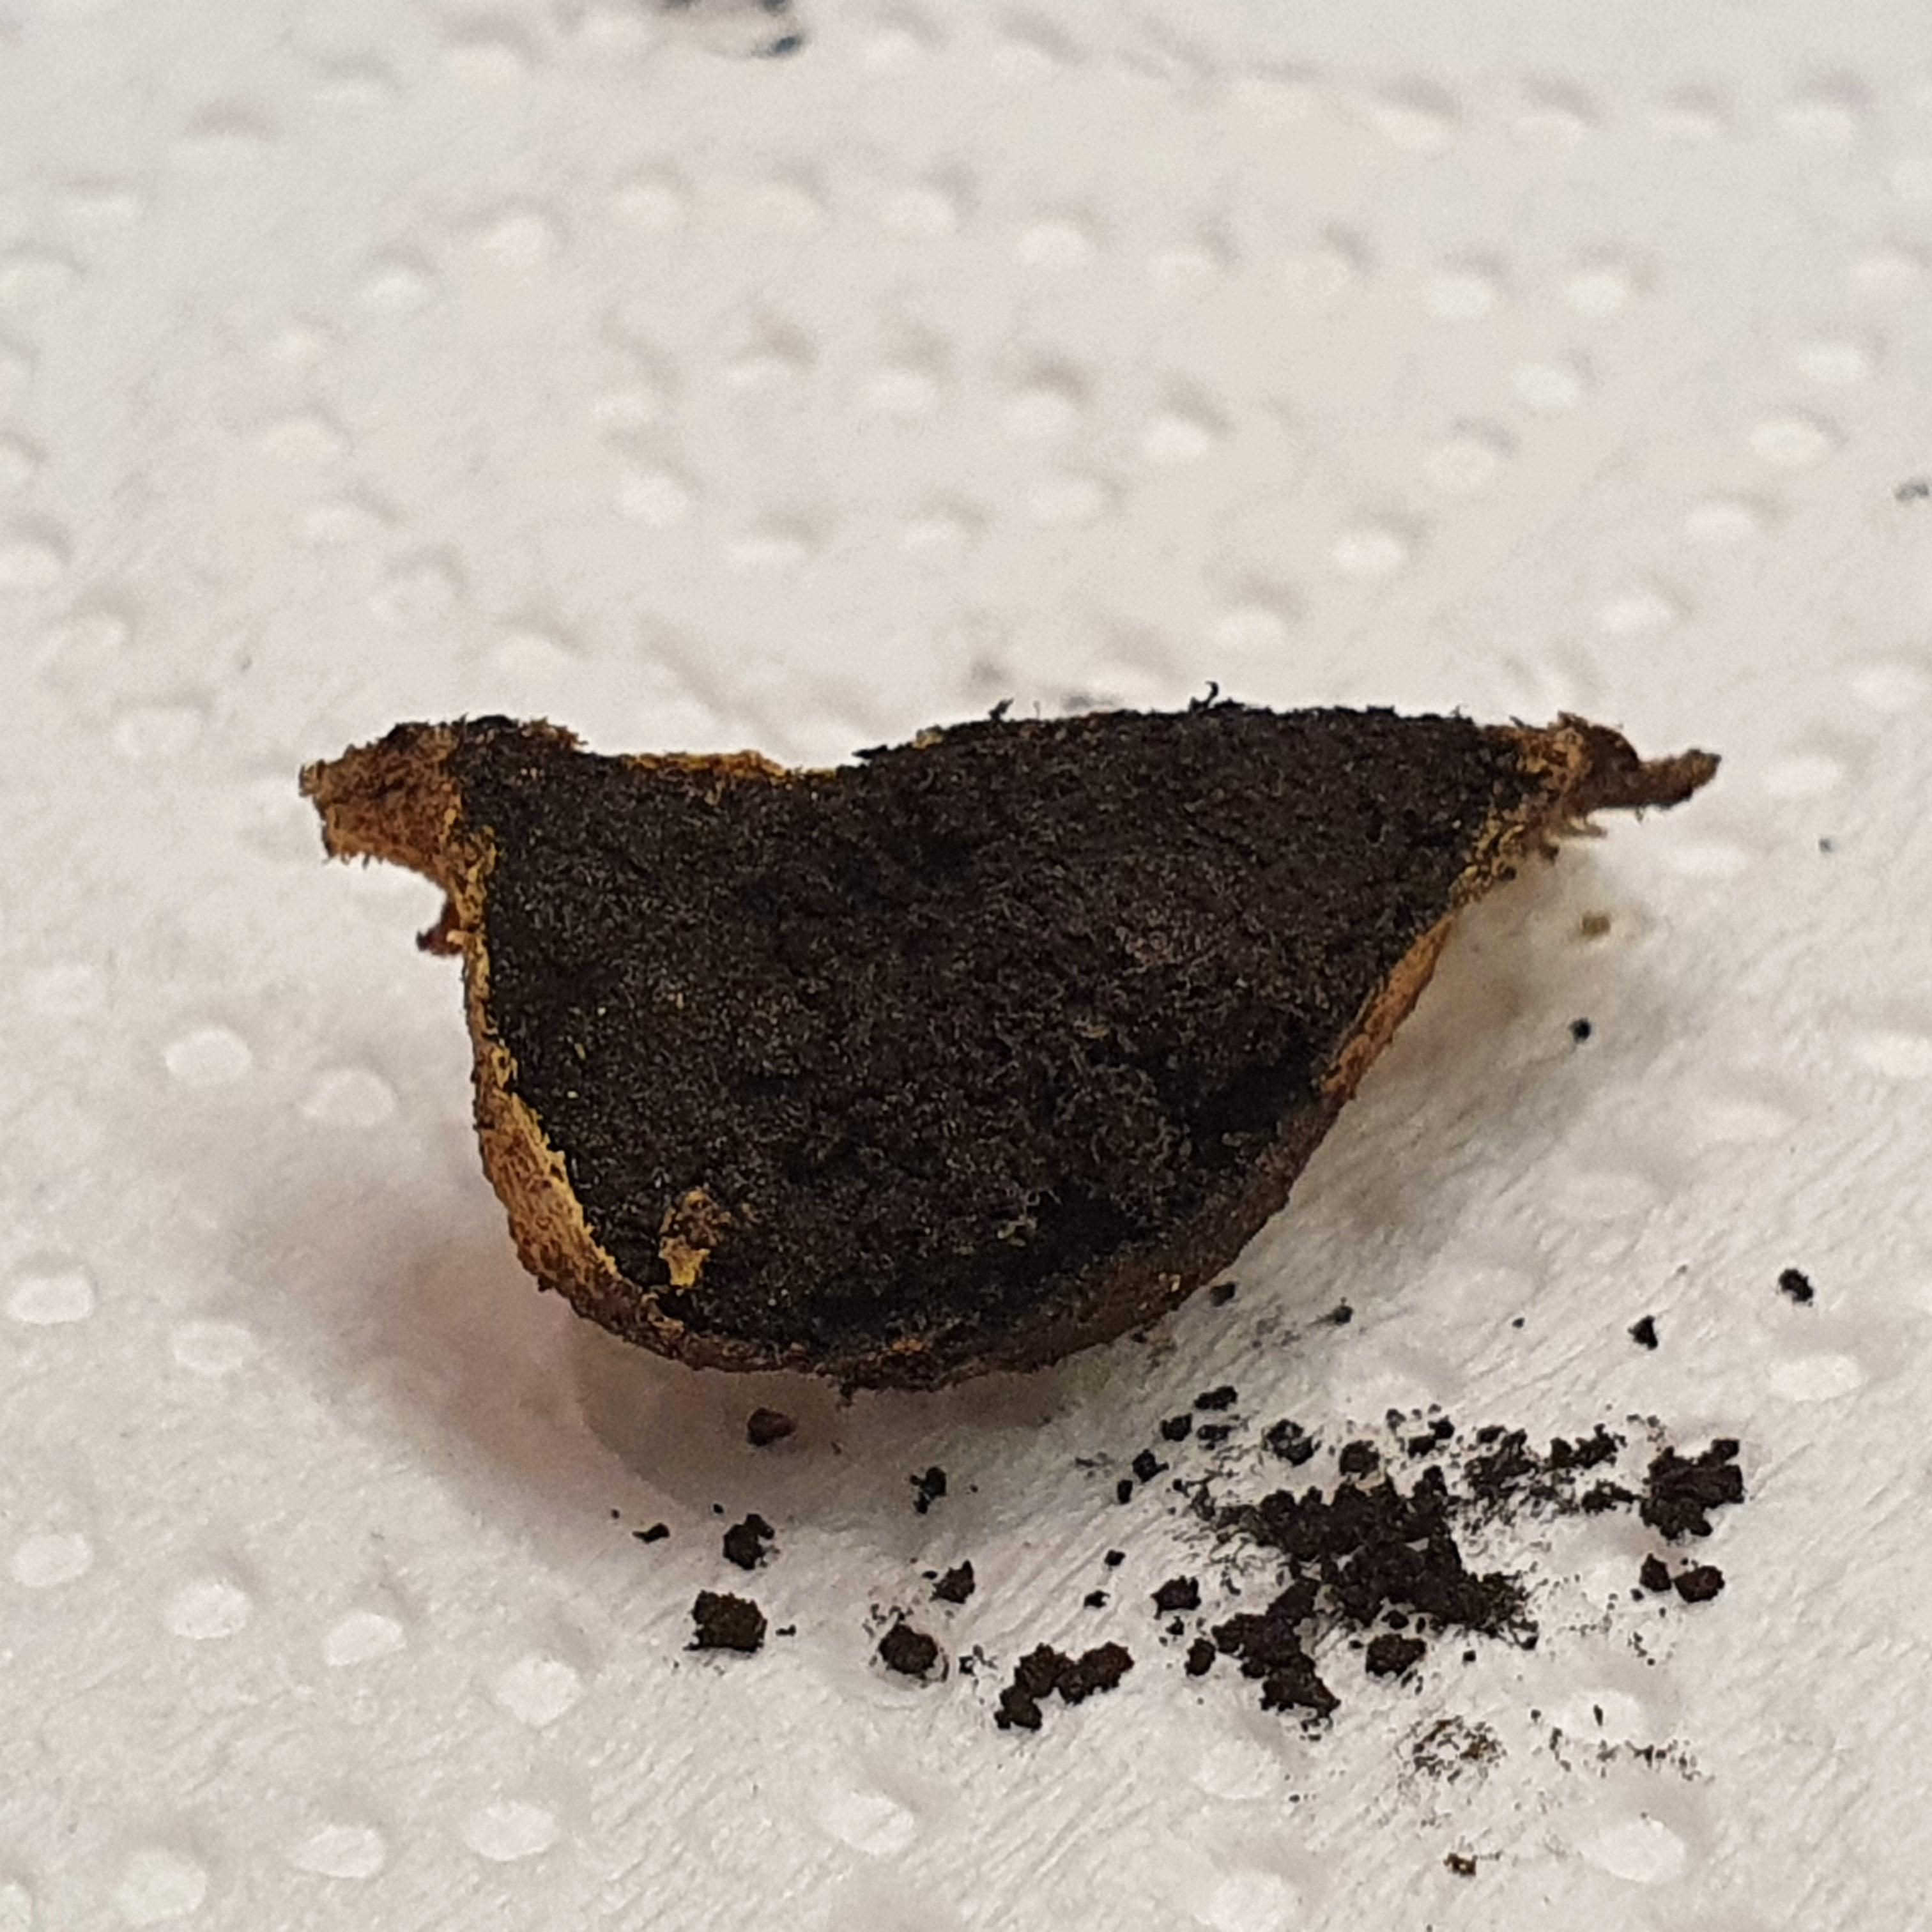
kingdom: Protozoa
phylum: Mycetozoa
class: Myxomycetes
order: Physarales
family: Physaraceae
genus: Fuligo
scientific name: Fuligo luteonitens
